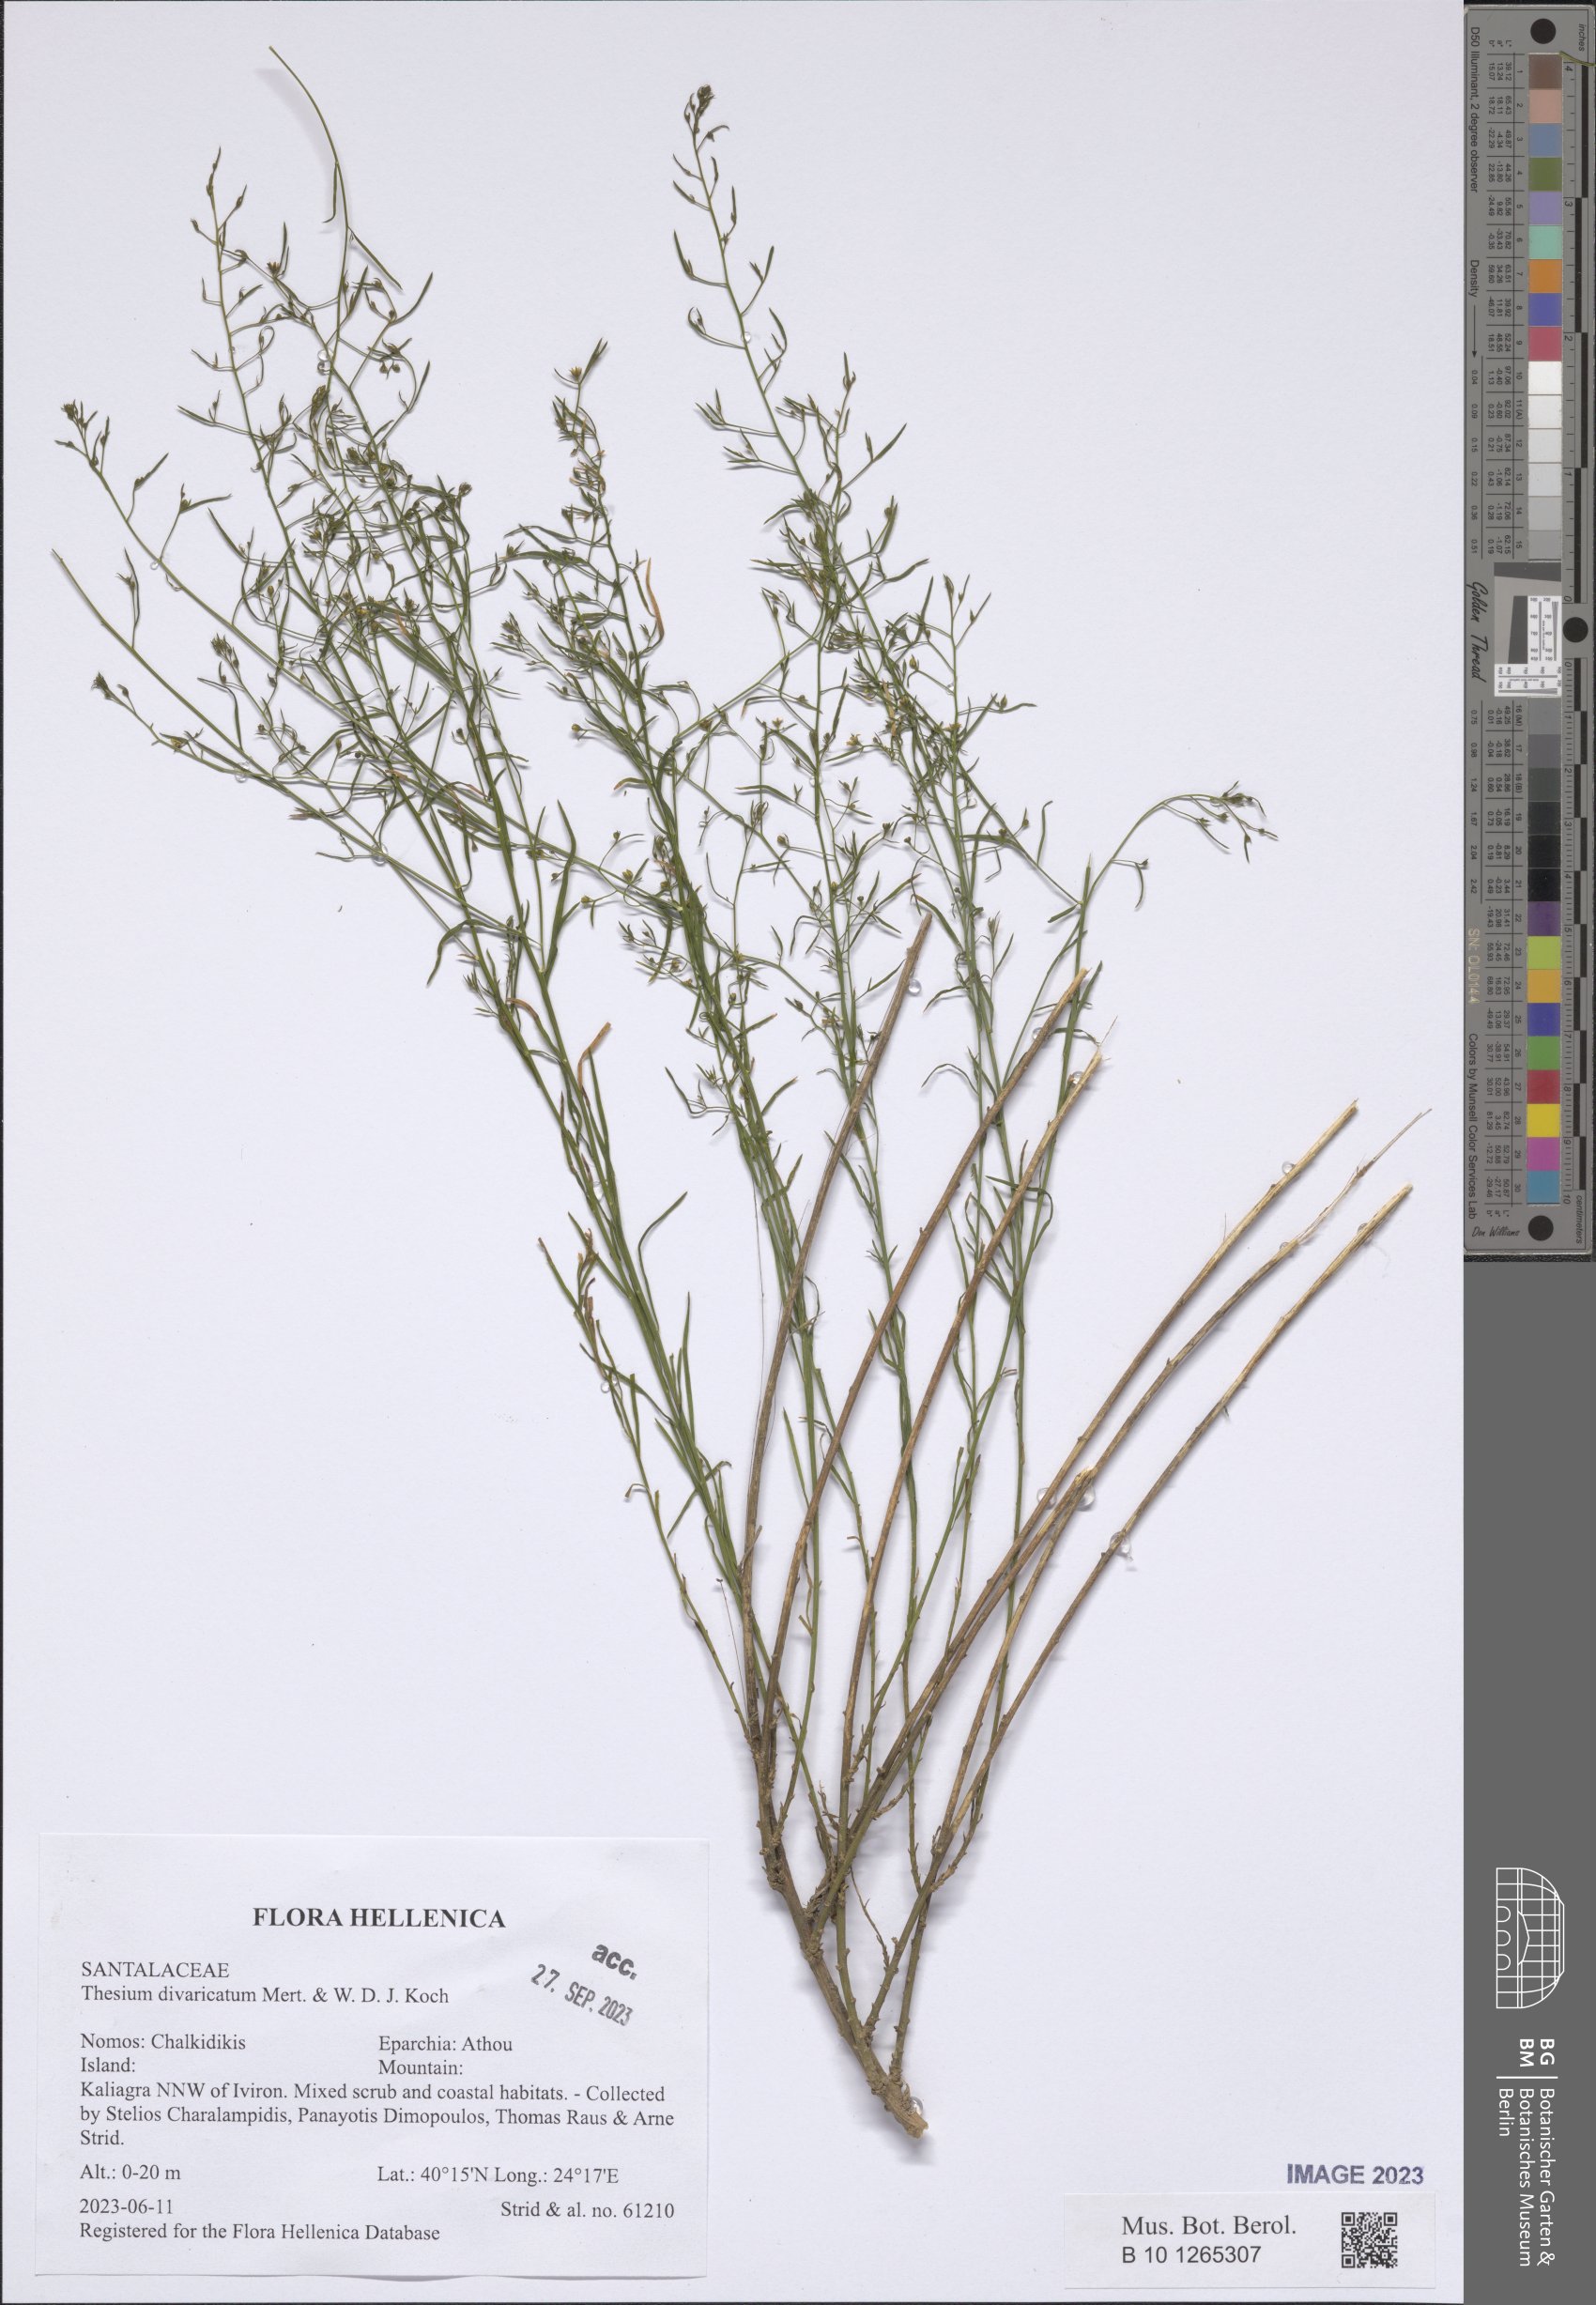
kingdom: Plantae
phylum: Tracheophyta
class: Magnoliopsida
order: Santalales
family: Thesiaceae
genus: Thesium
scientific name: Thesium divaricatum
